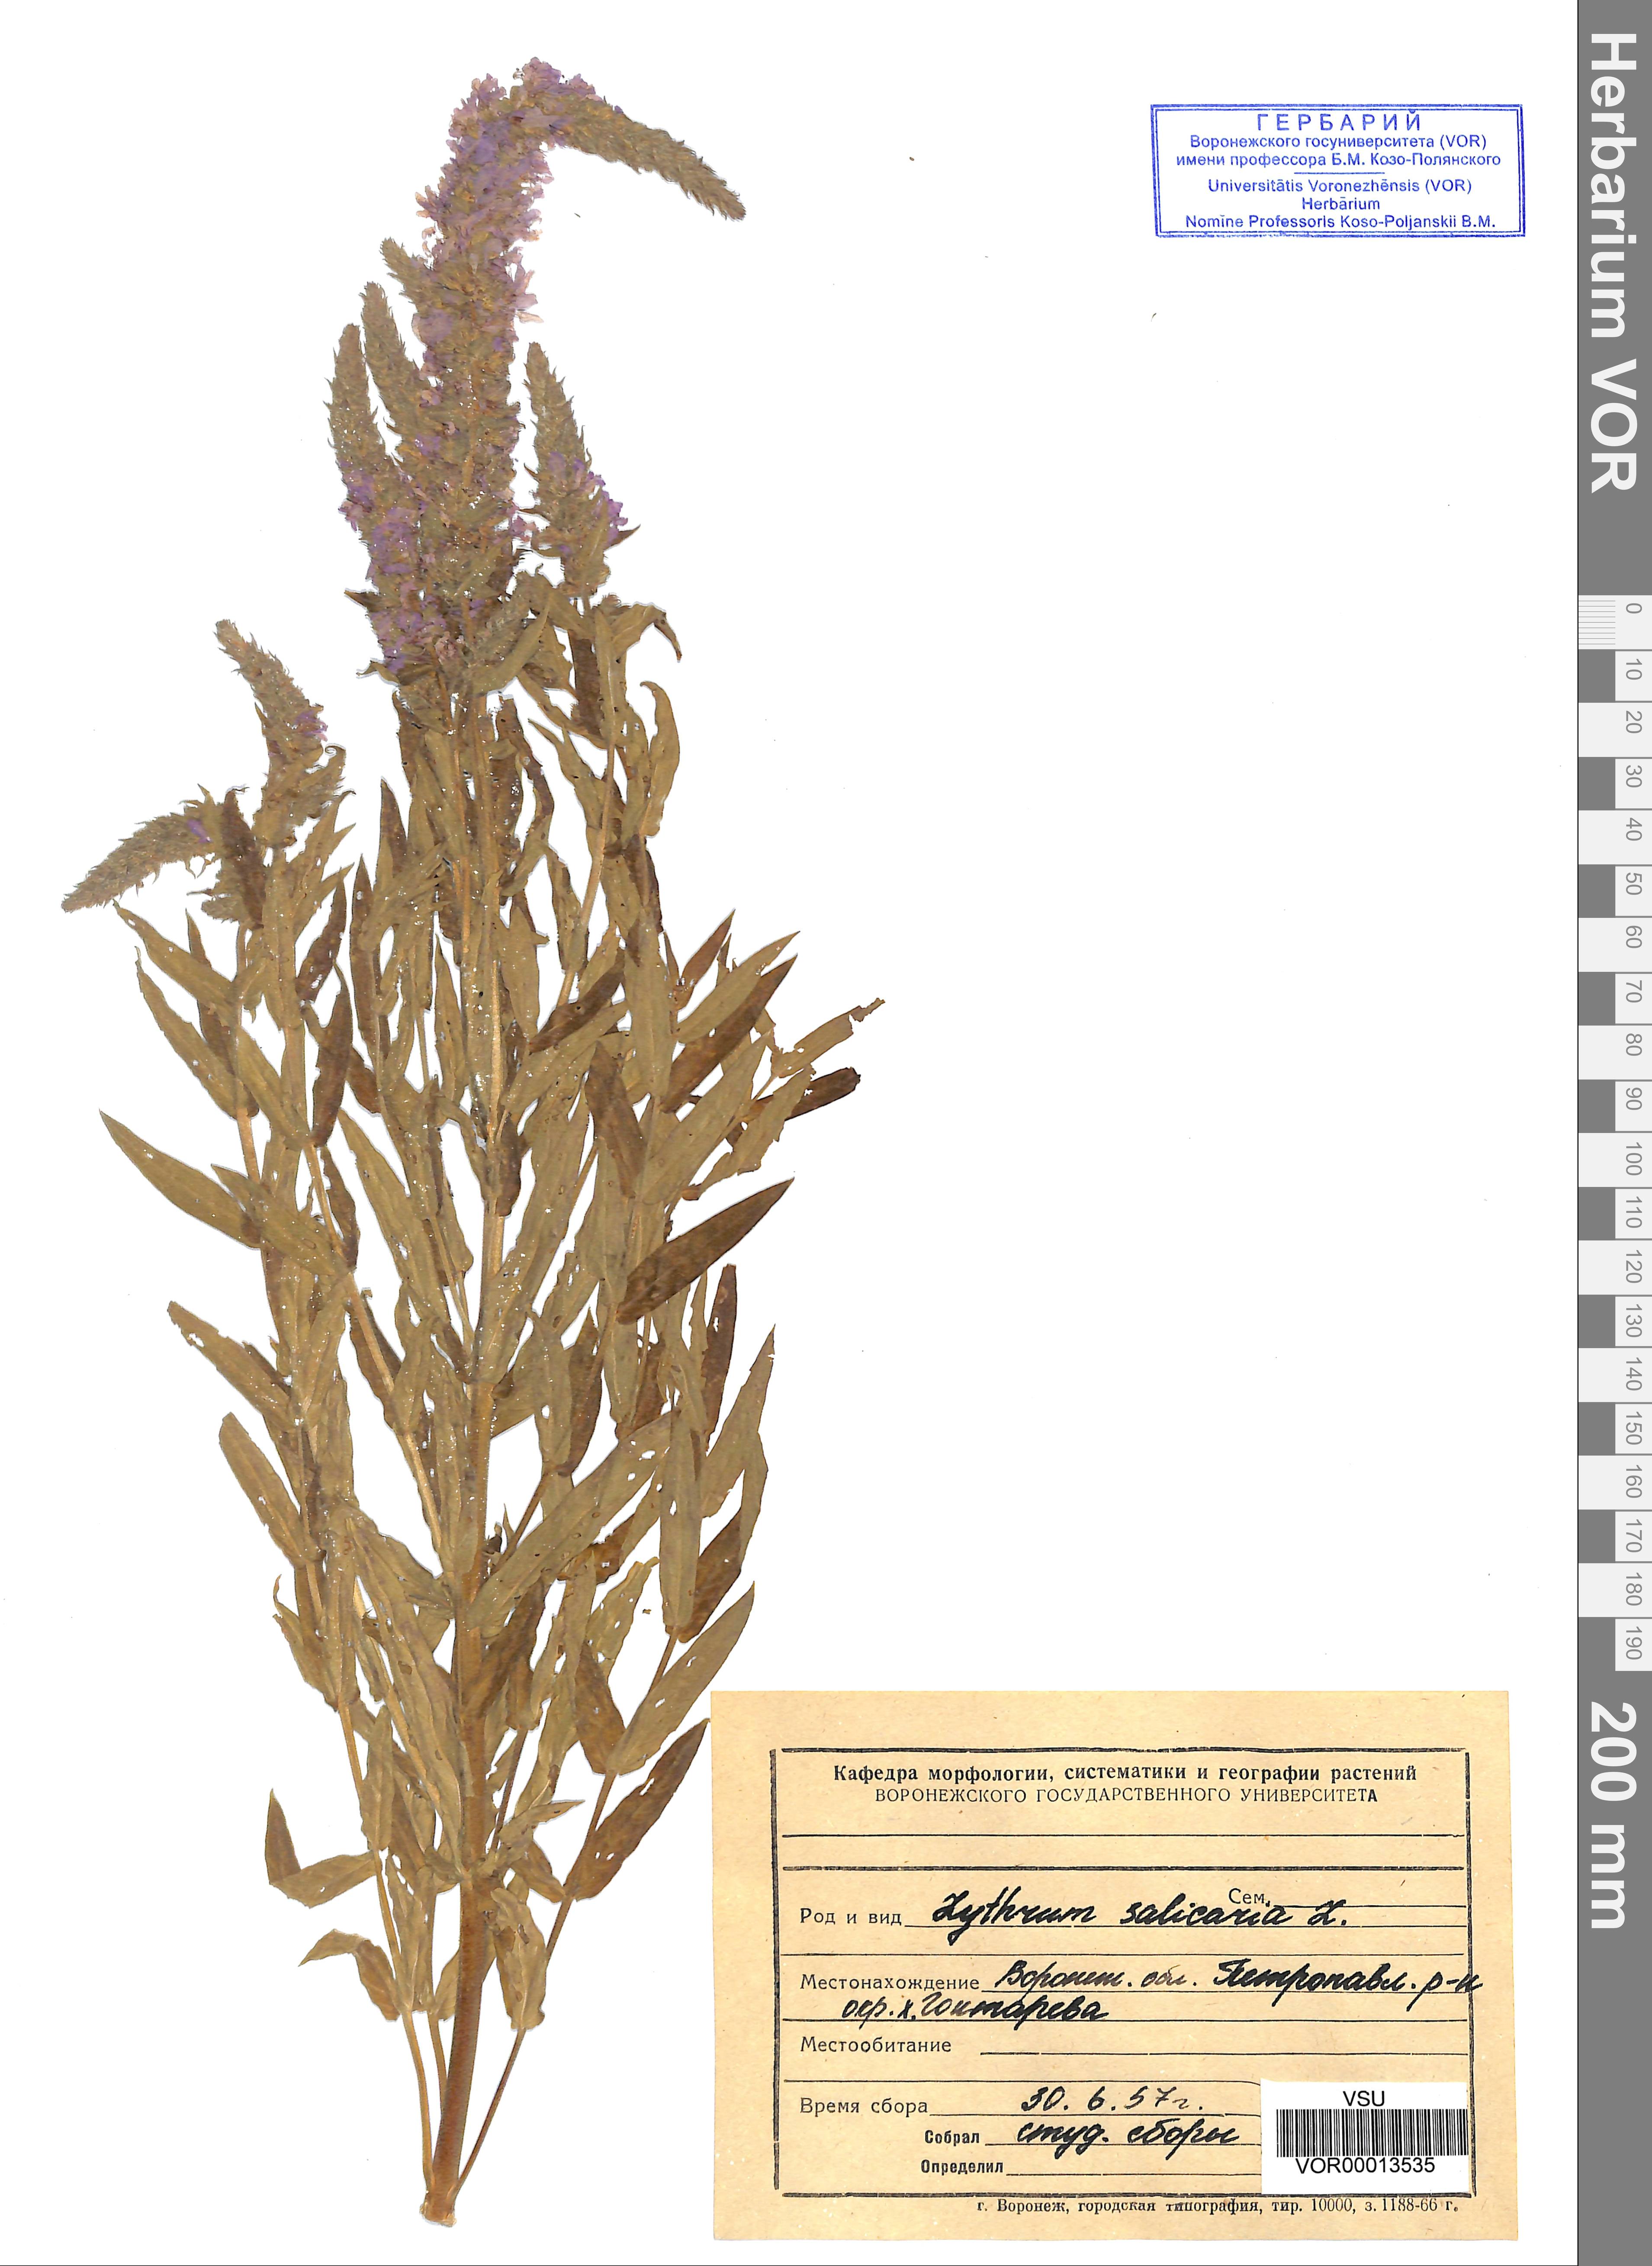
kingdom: Plantae
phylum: Tracheophyta
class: Magnoliopsida
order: Myrtales
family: Lythraceae
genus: Lythrum
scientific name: Lythrum salicaria
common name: Purple loosestrife
